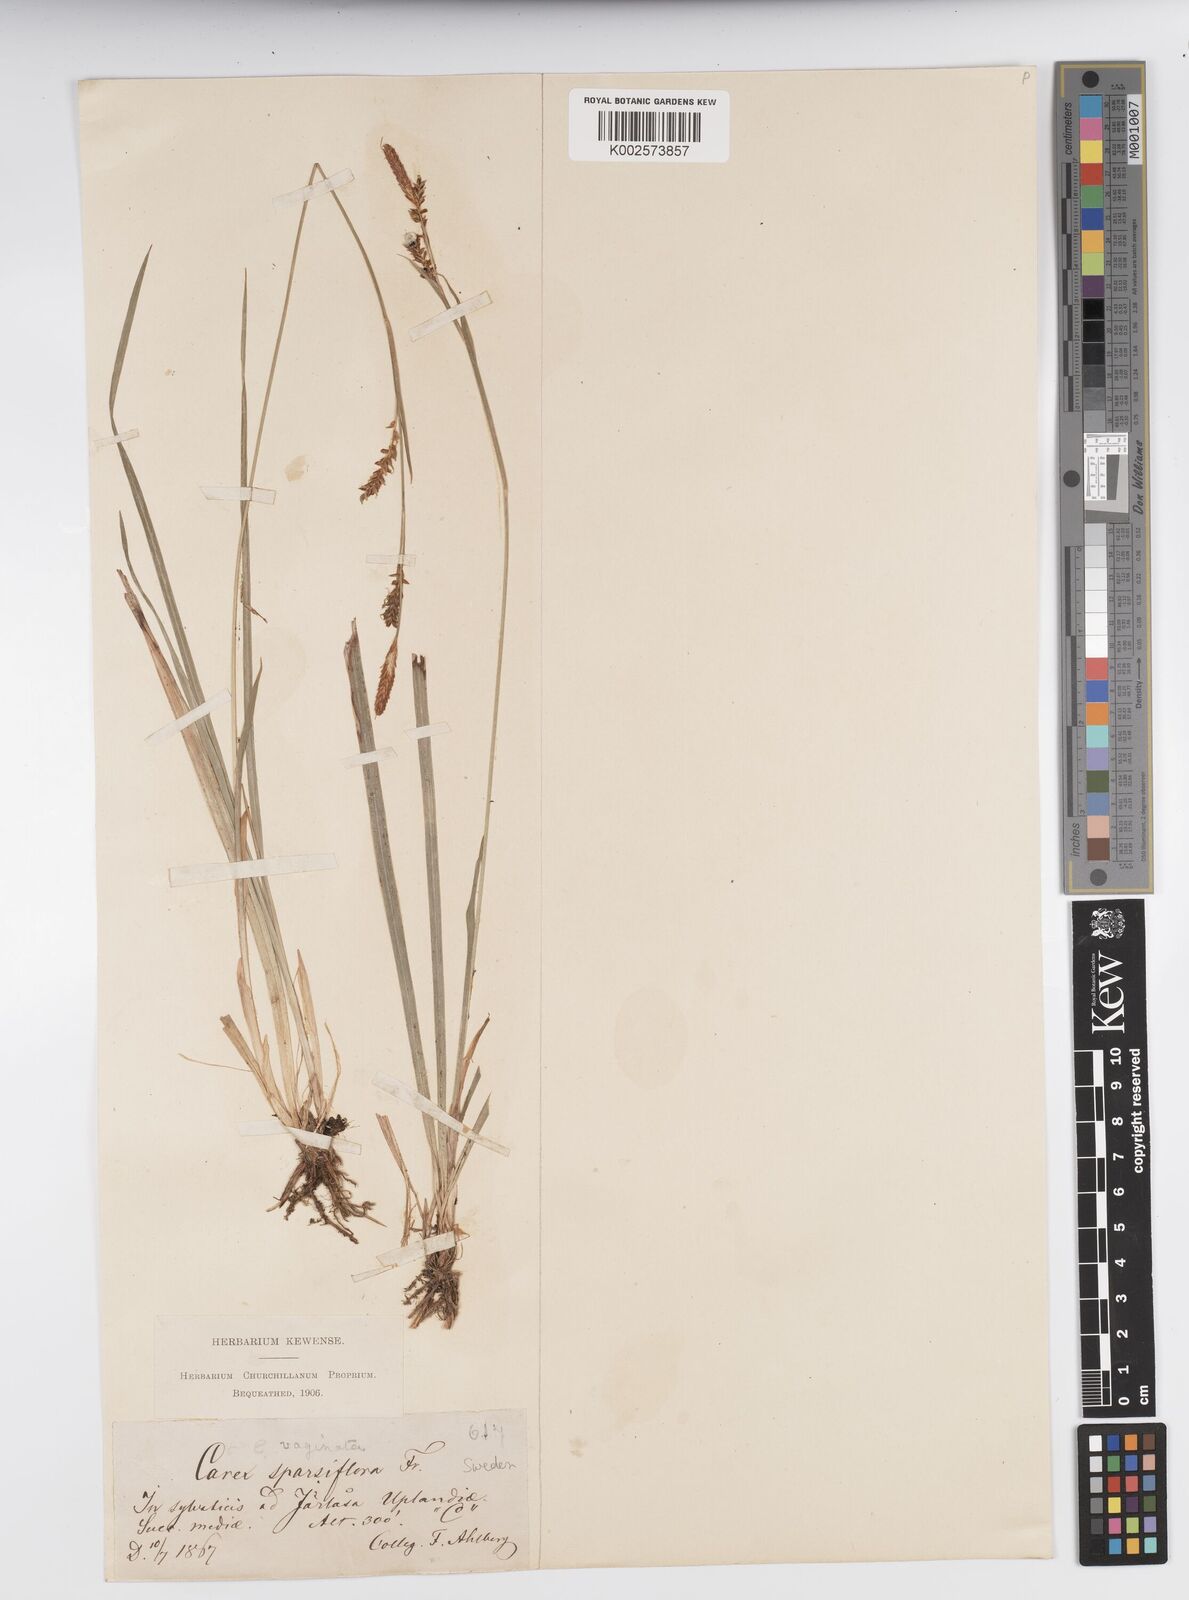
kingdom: Plantae
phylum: Tracheophyta
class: Liliopsida
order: Poales
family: Cyperaceae
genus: Carex
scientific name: Carex vaginata
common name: Sheathed sedge
